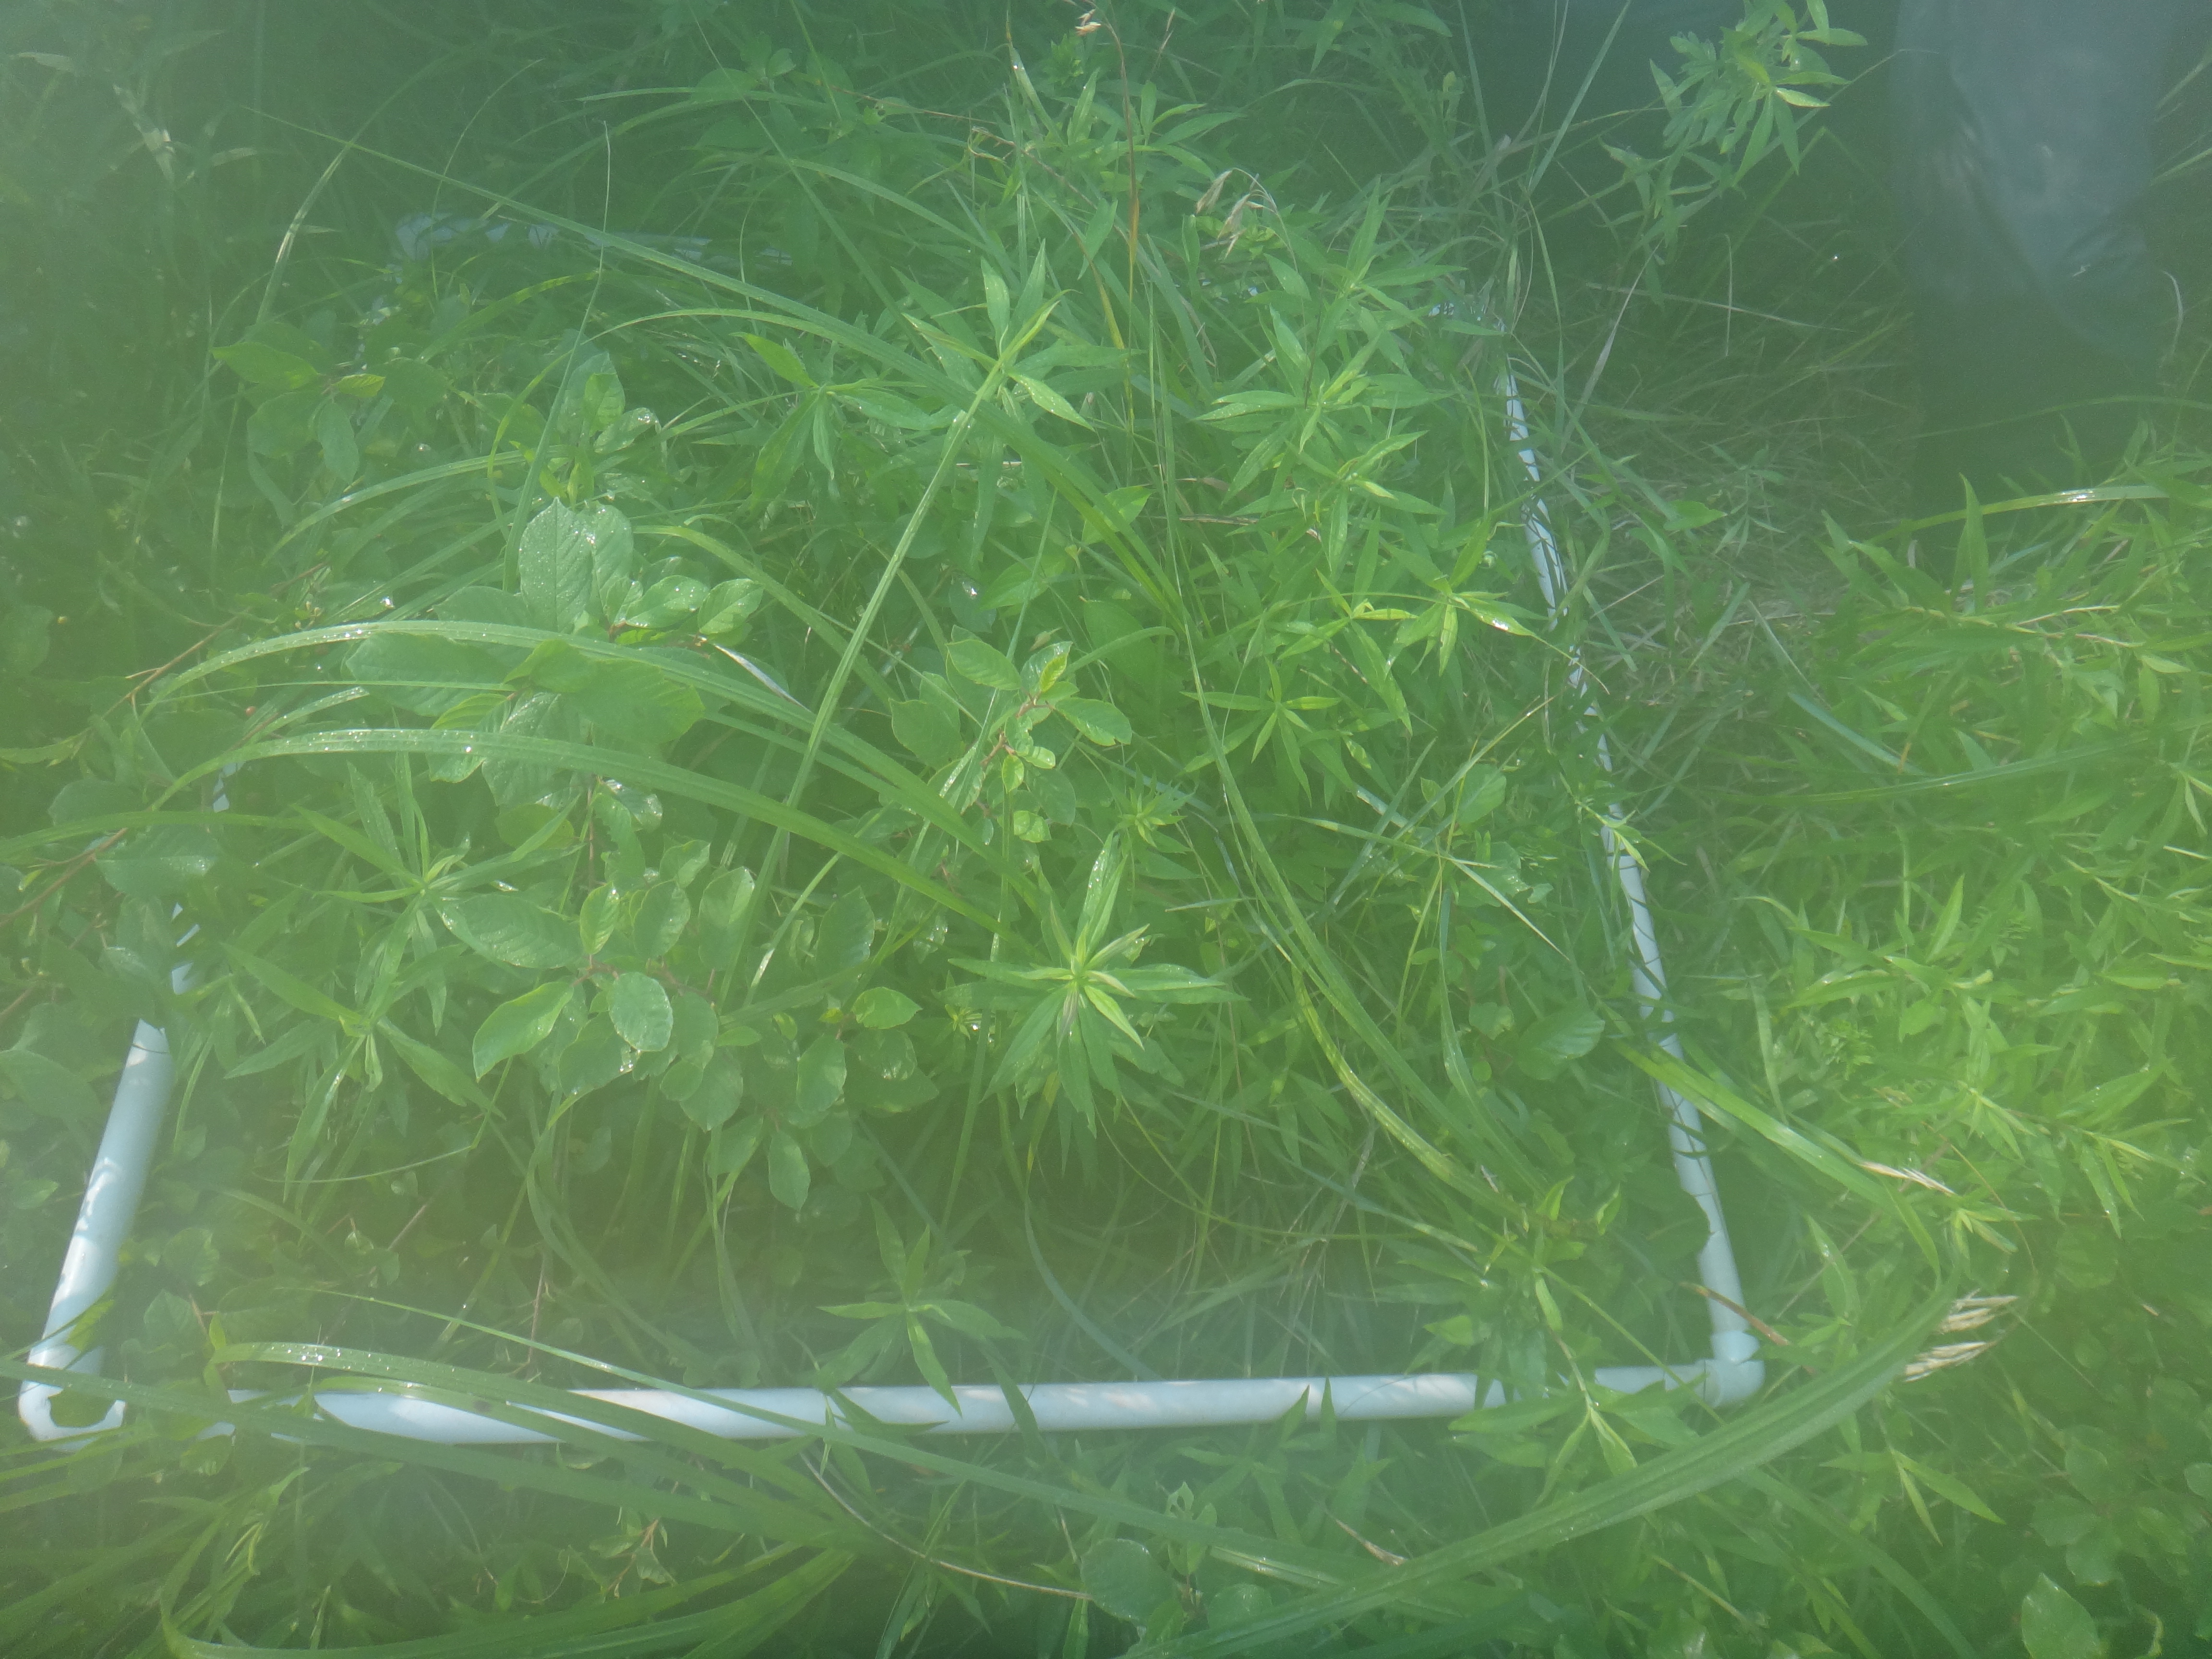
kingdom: Plantae
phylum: Tracheophyta
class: Liliopsida
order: Poales
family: Poaceae
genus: Bromus
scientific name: Bromus ciliatus
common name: Fringe brome
